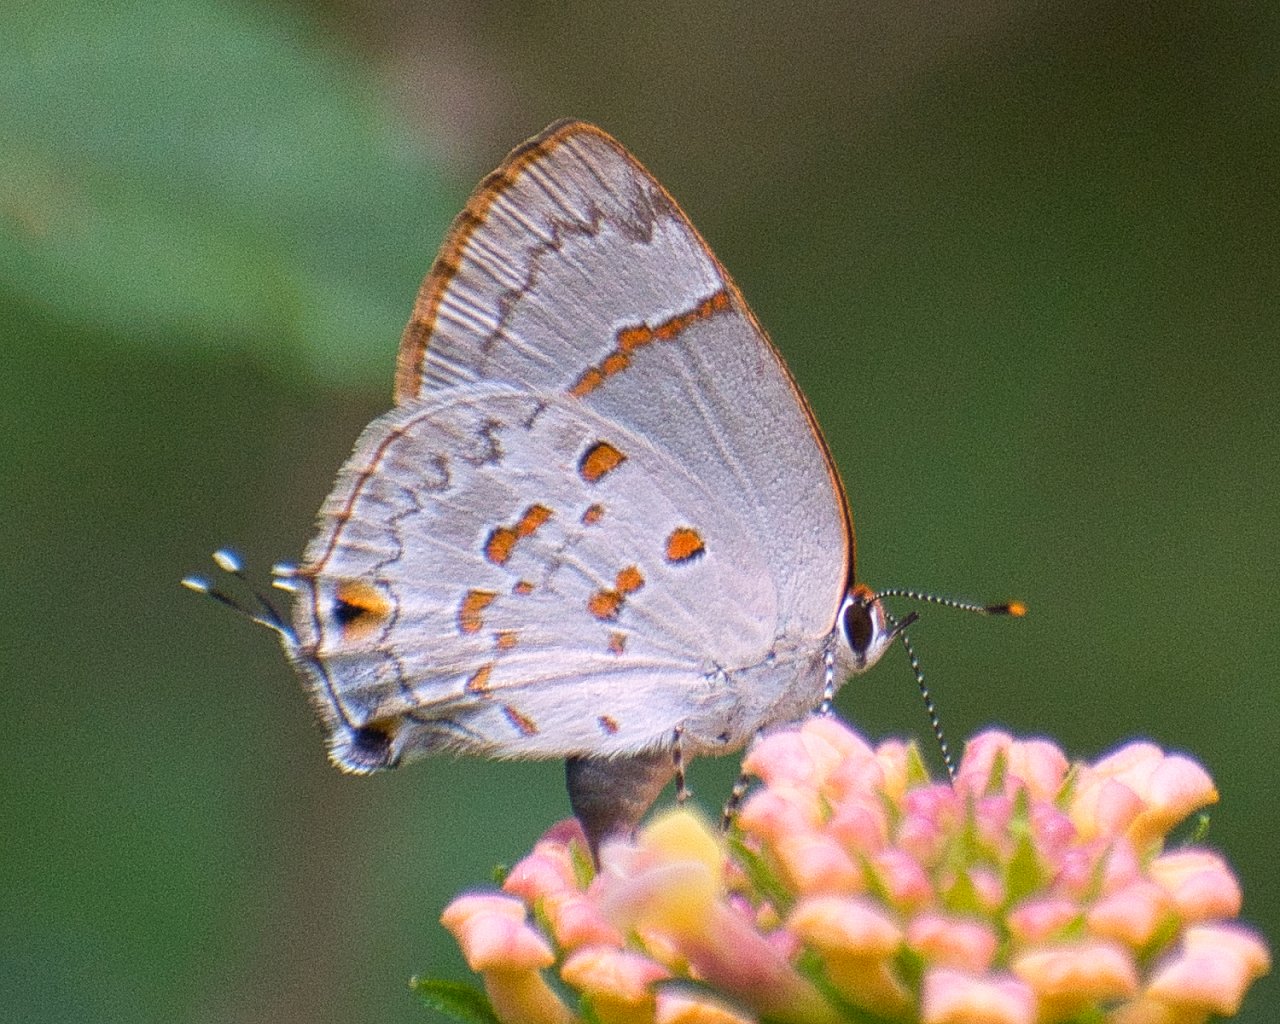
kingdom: Animalia
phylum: Arthropoda
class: Insecta
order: Lepidoptera
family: Lycaenidae
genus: Tmolus
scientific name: Tmolus echion
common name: Red-spotted Hairstreak
